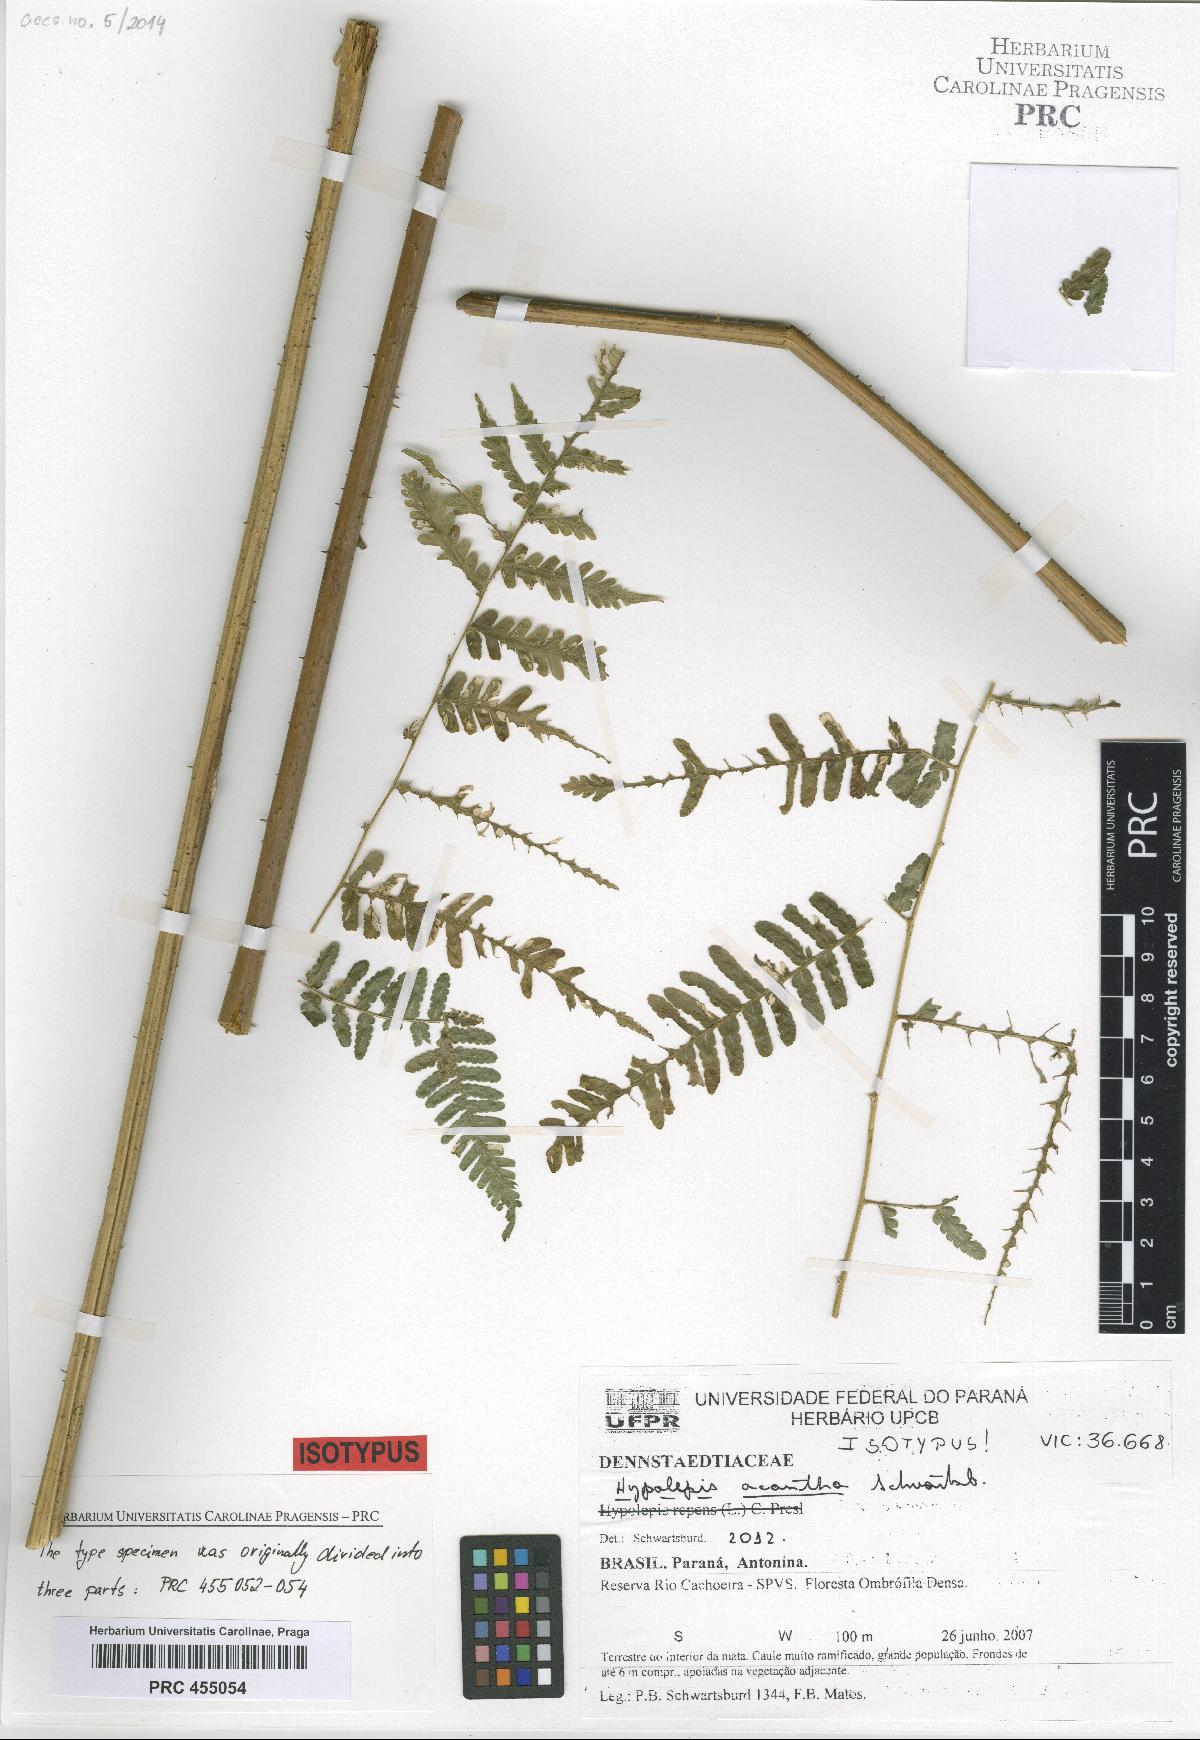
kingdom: Plantae
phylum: Tracheophyta
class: Polypodiopsida
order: Polypodiales
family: Dennstaedtiaceae
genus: Hypolepis
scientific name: Hypolepis acantha
